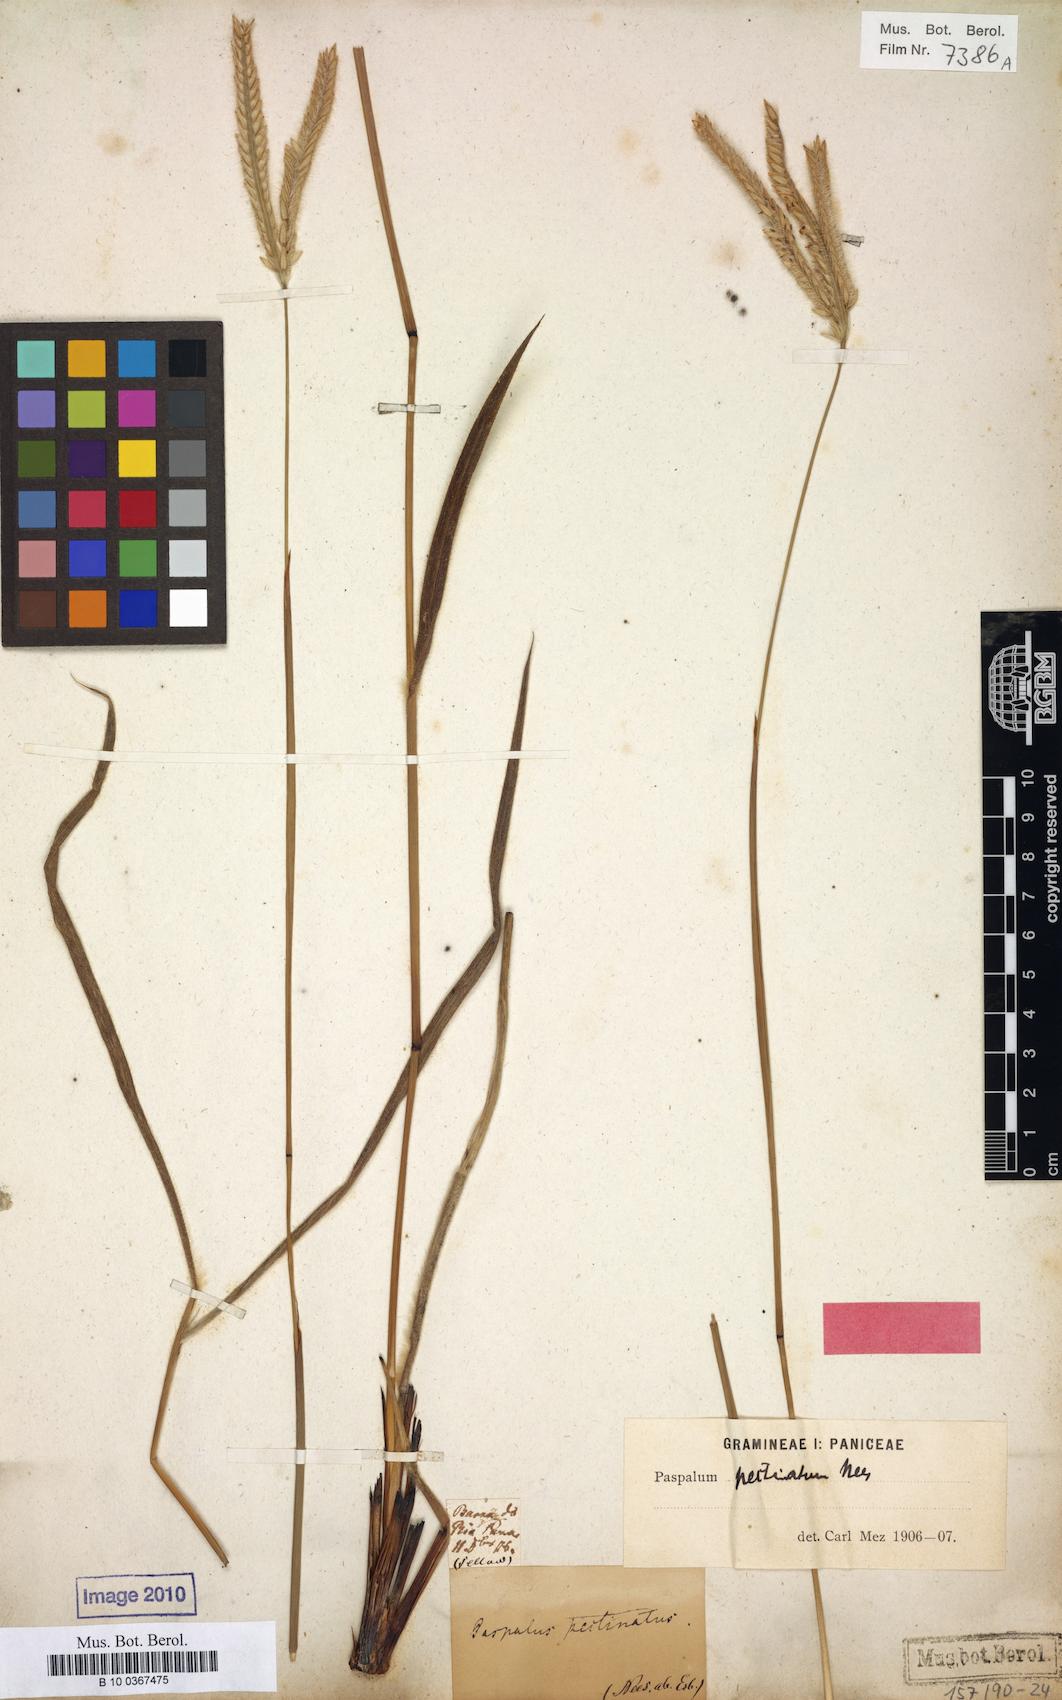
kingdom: Plantae
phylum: Tracheophyta
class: Liliopsida
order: Poales
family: Poaceae
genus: Paspalum
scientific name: Paspalum pectinatum
